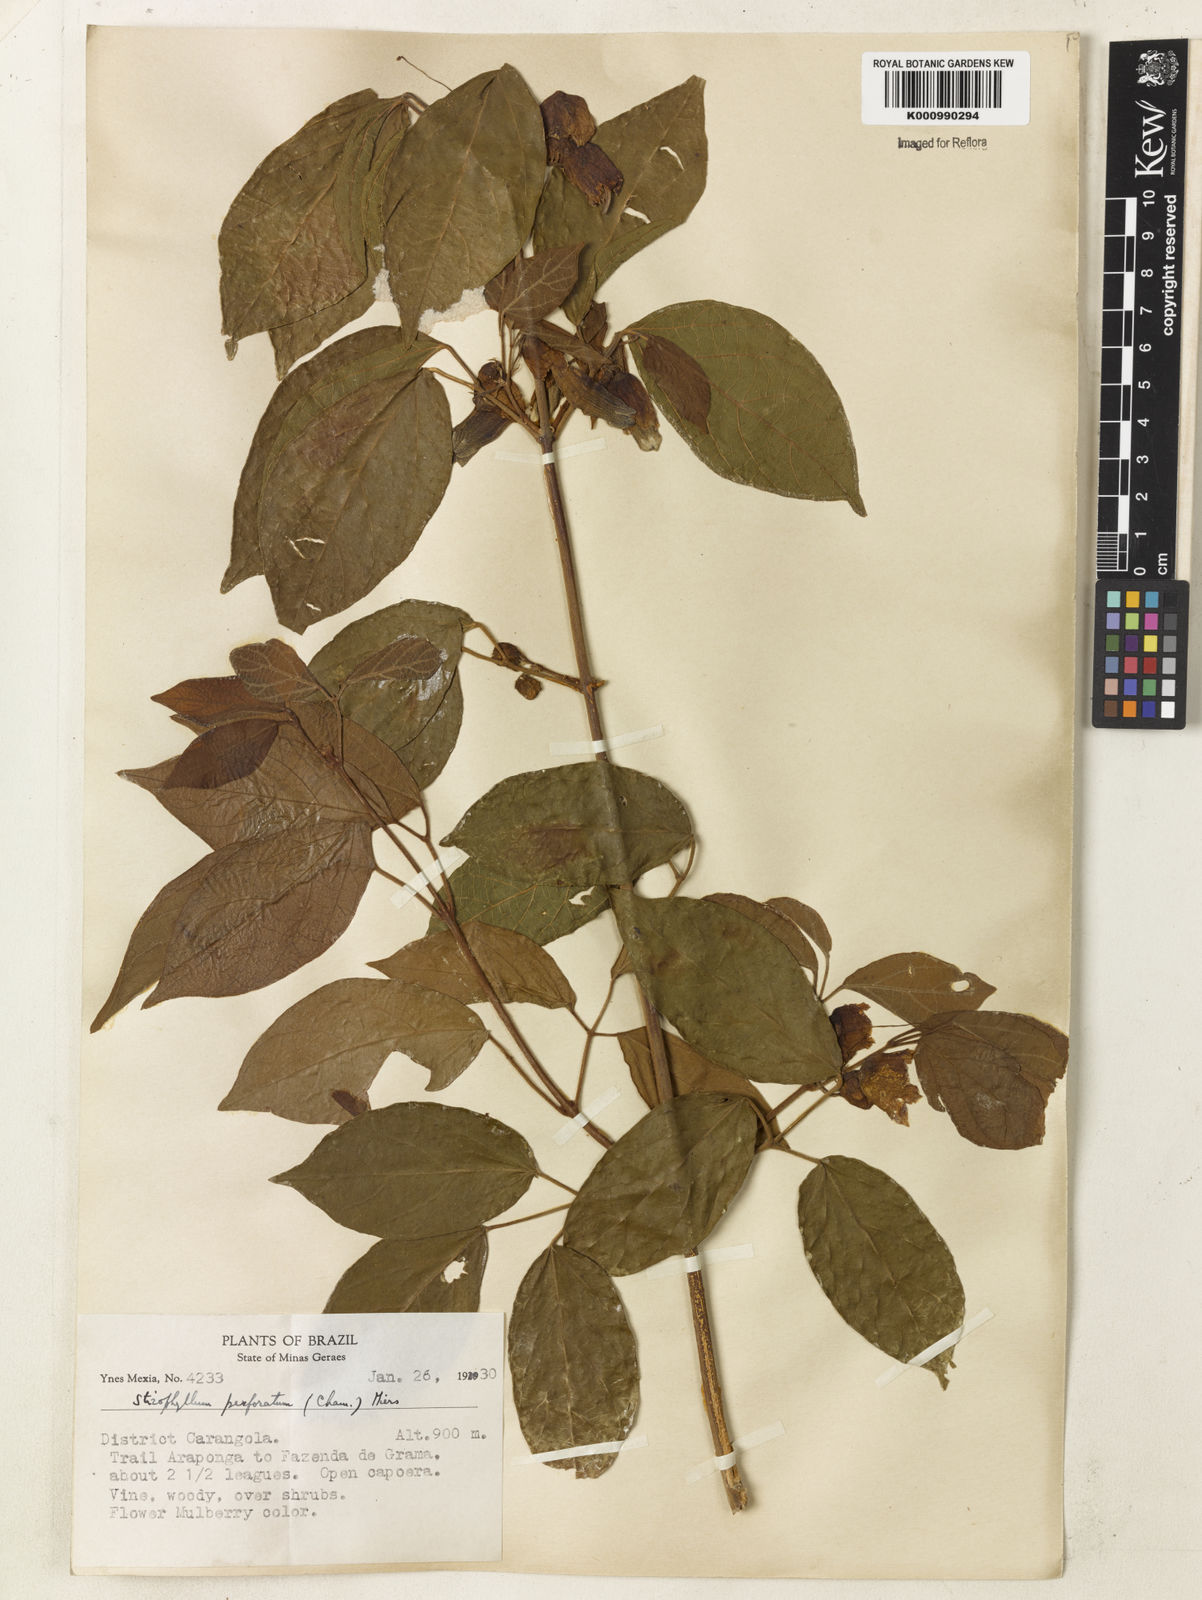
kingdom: Plantae
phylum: Tracheophyta
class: Magnoliopsida
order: Lamiales
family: Bignoniaceae
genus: Stizophyllum
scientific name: Stizophyllum perforatum
